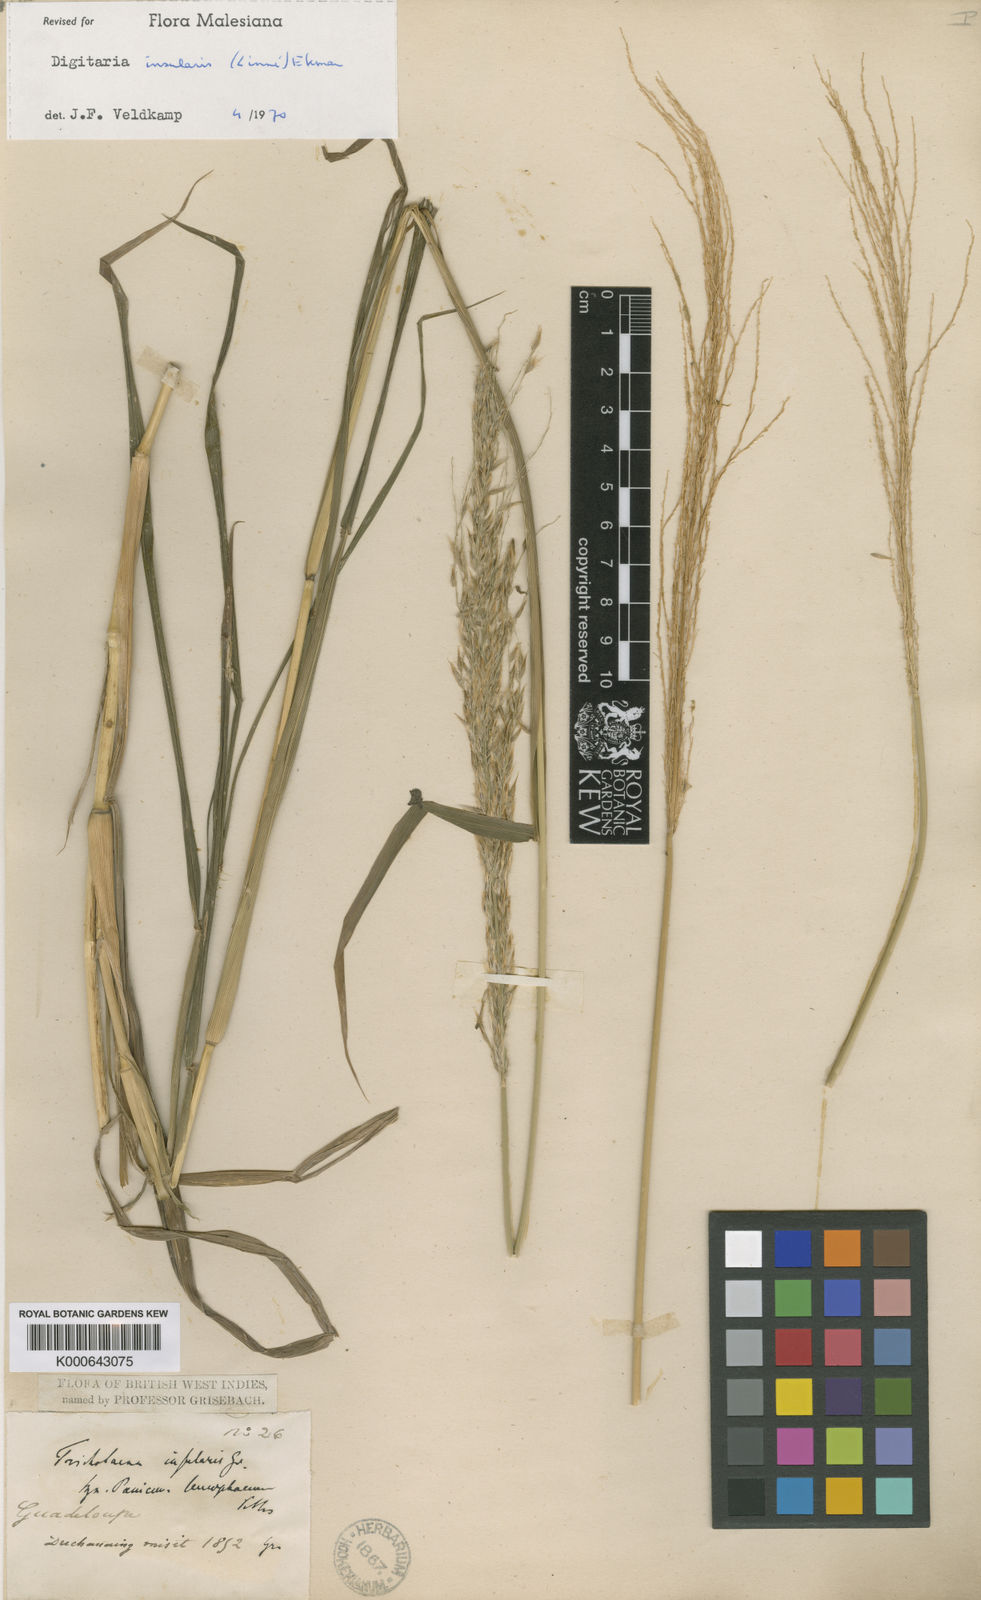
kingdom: Plantae
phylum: Tracheophyta
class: Liliopsida
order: Poales
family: Poaceae
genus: Digitaria
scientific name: Digitaria insularis
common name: Sourgrass
